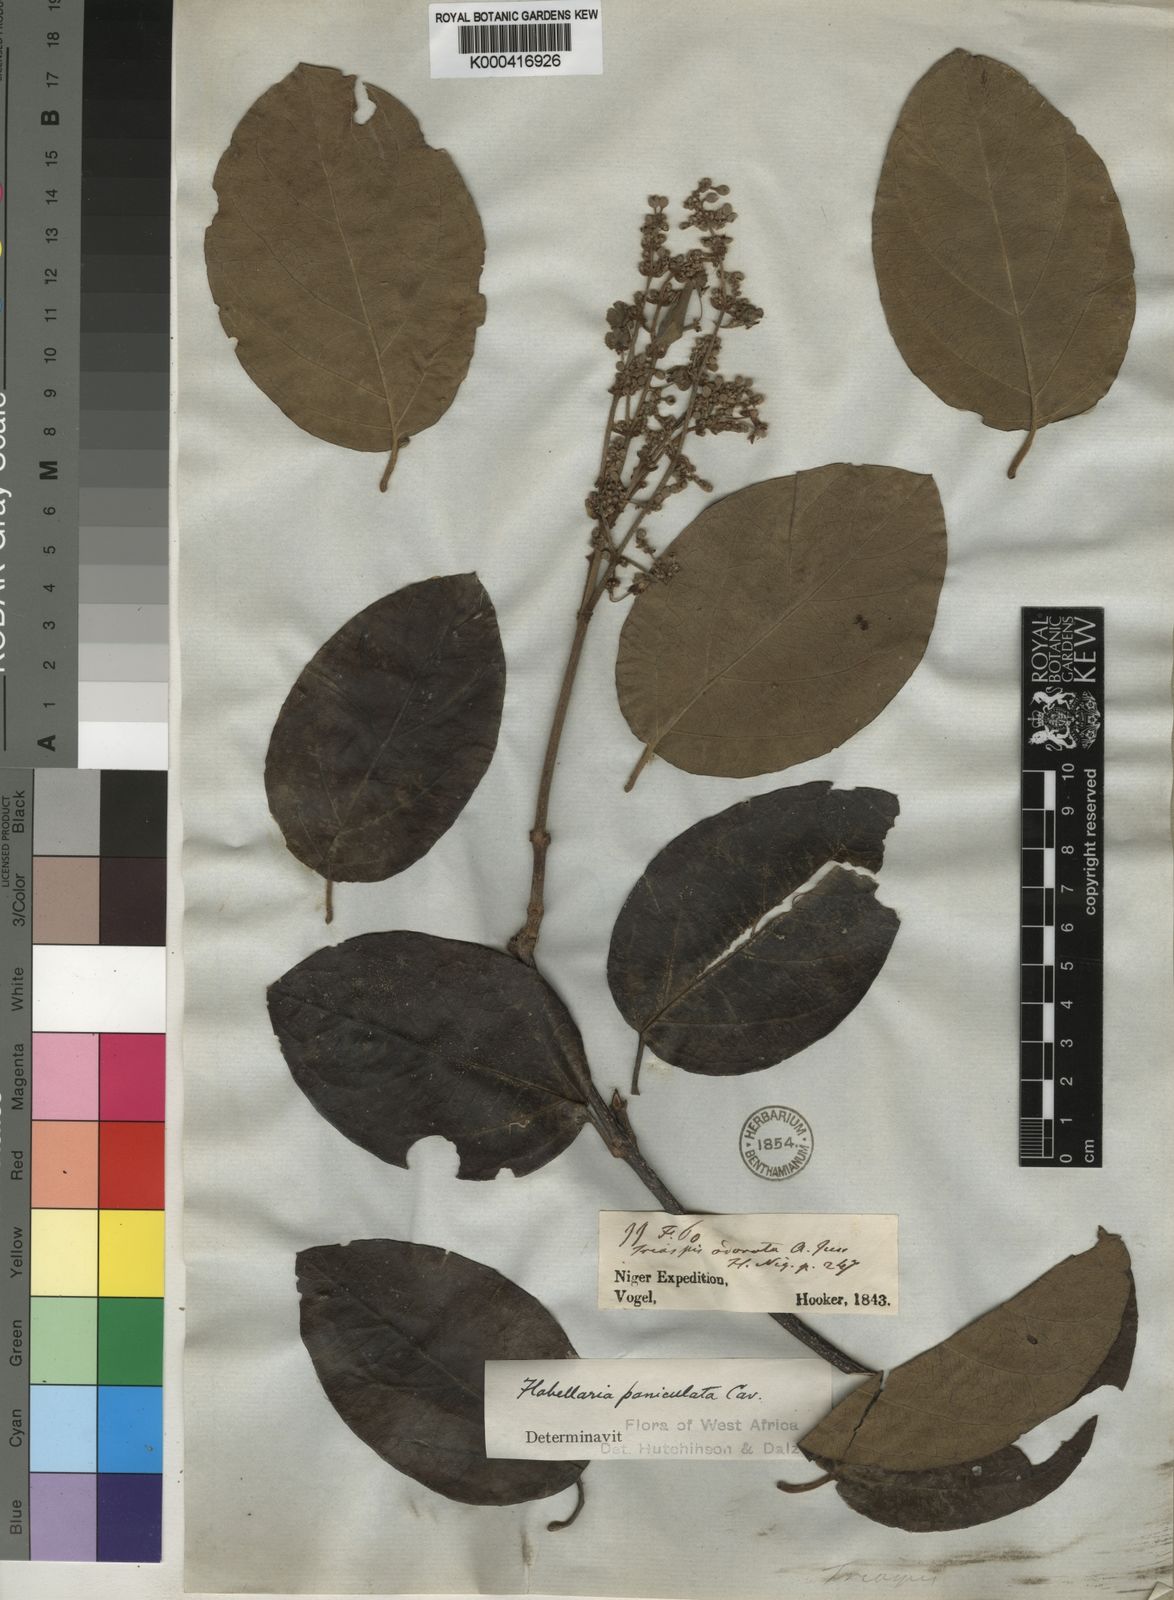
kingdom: Plantae
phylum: Tracheophyta
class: Magnoliopsida
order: Malpighiales
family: Malpighiaceae
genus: Flabellaria
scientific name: Flabellaria paniculata
